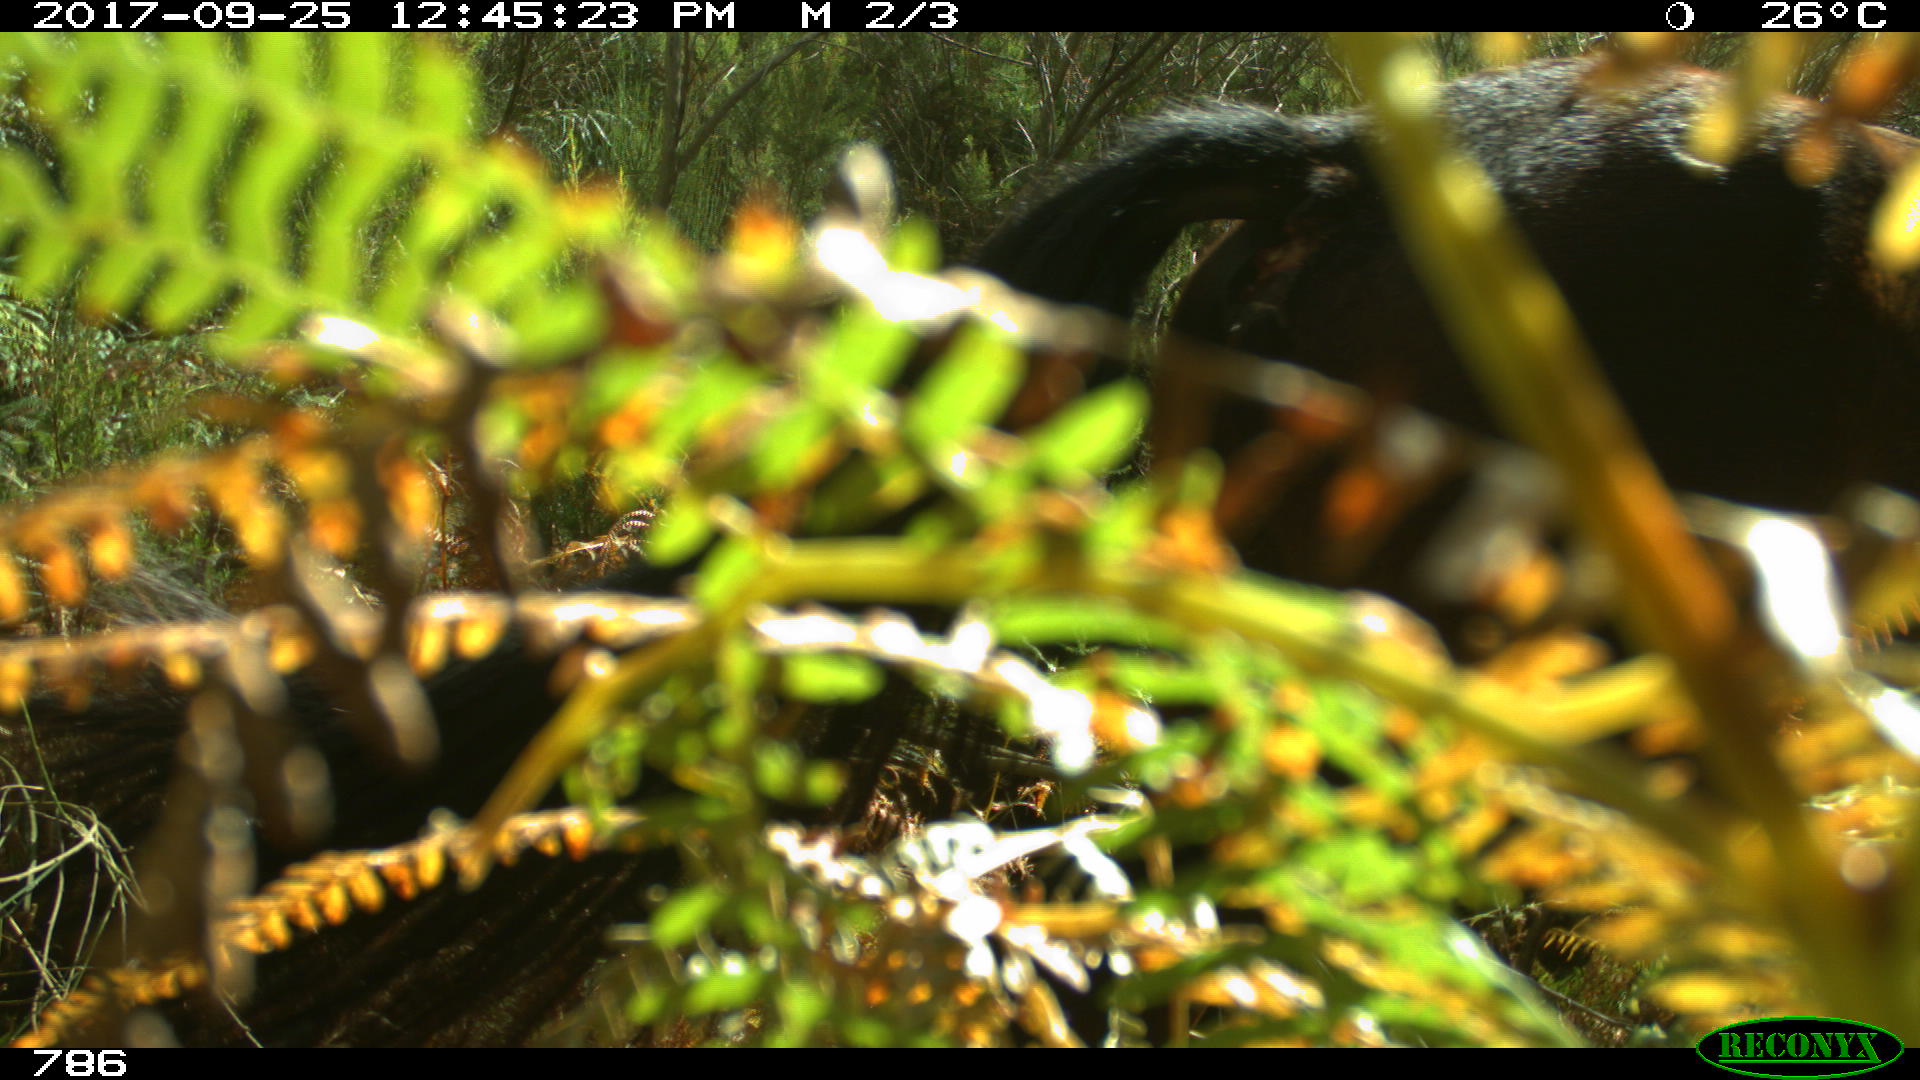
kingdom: Animalia
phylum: Chordata
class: Mammalia
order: Perissodactyla
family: Equidae
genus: Equus
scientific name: Equus caballus
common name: Horse
